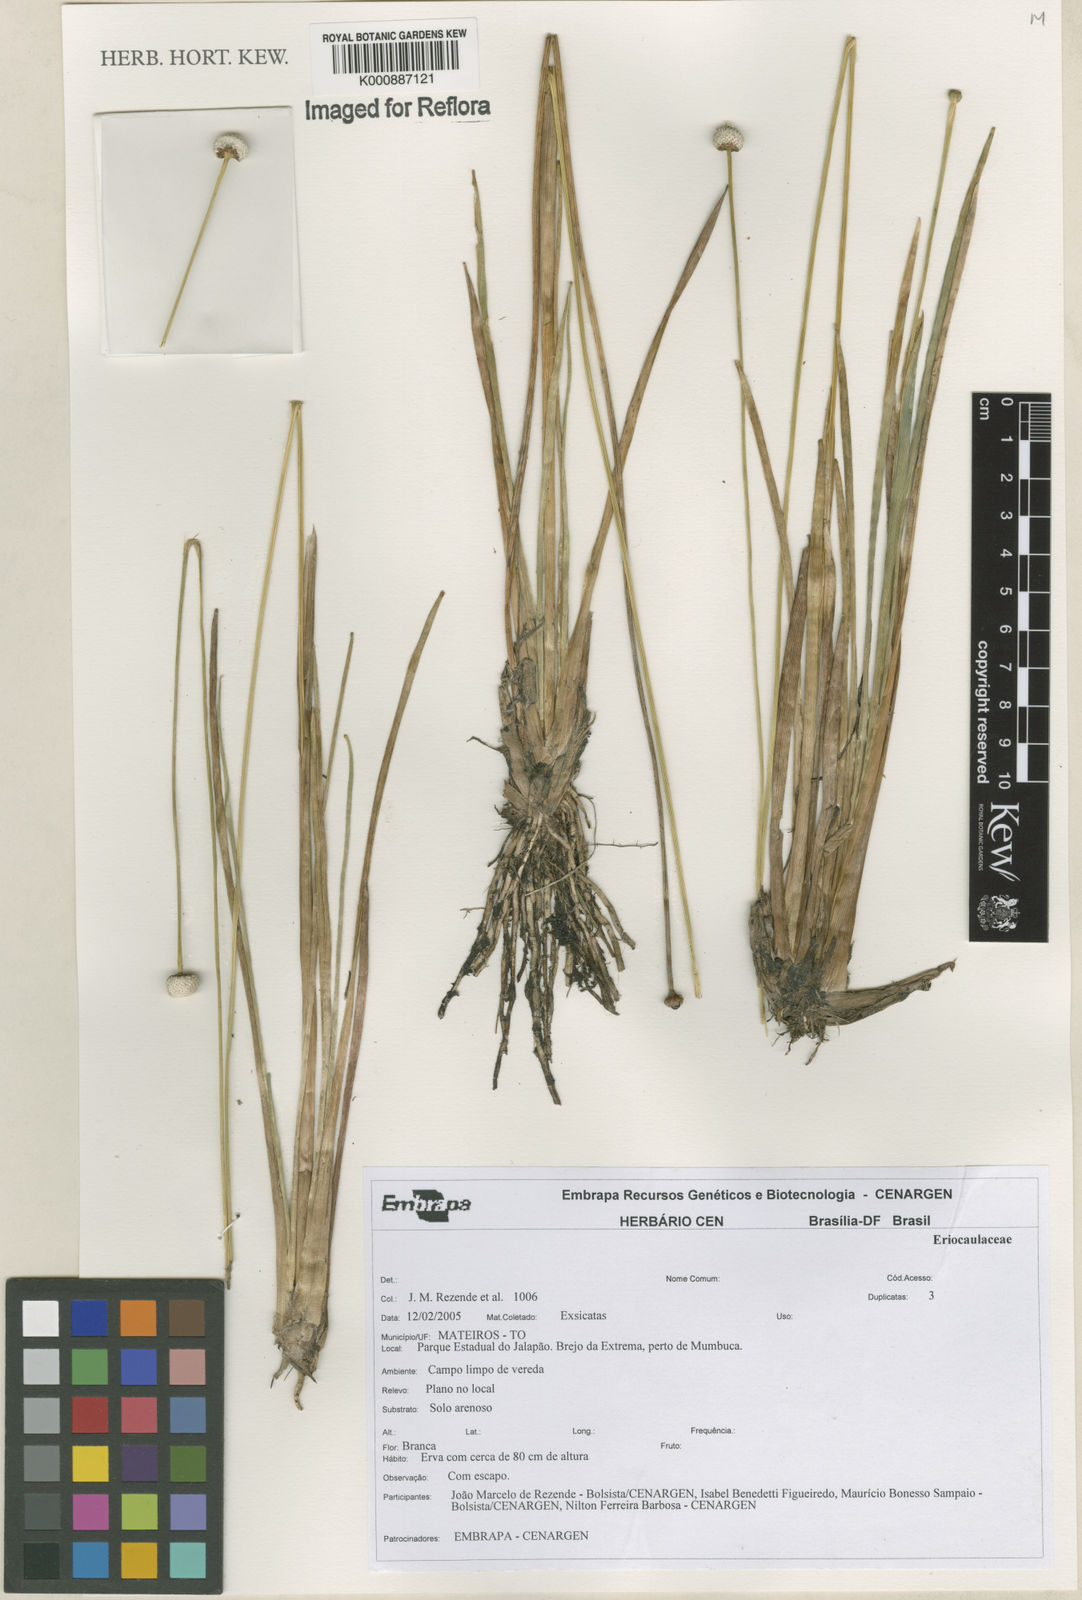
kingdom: Plantae
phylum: Tracheophyta
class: Liliopsida
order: Poales
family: Eriocaulaceae
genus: Eriocaulon
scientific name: Eriocaulon
